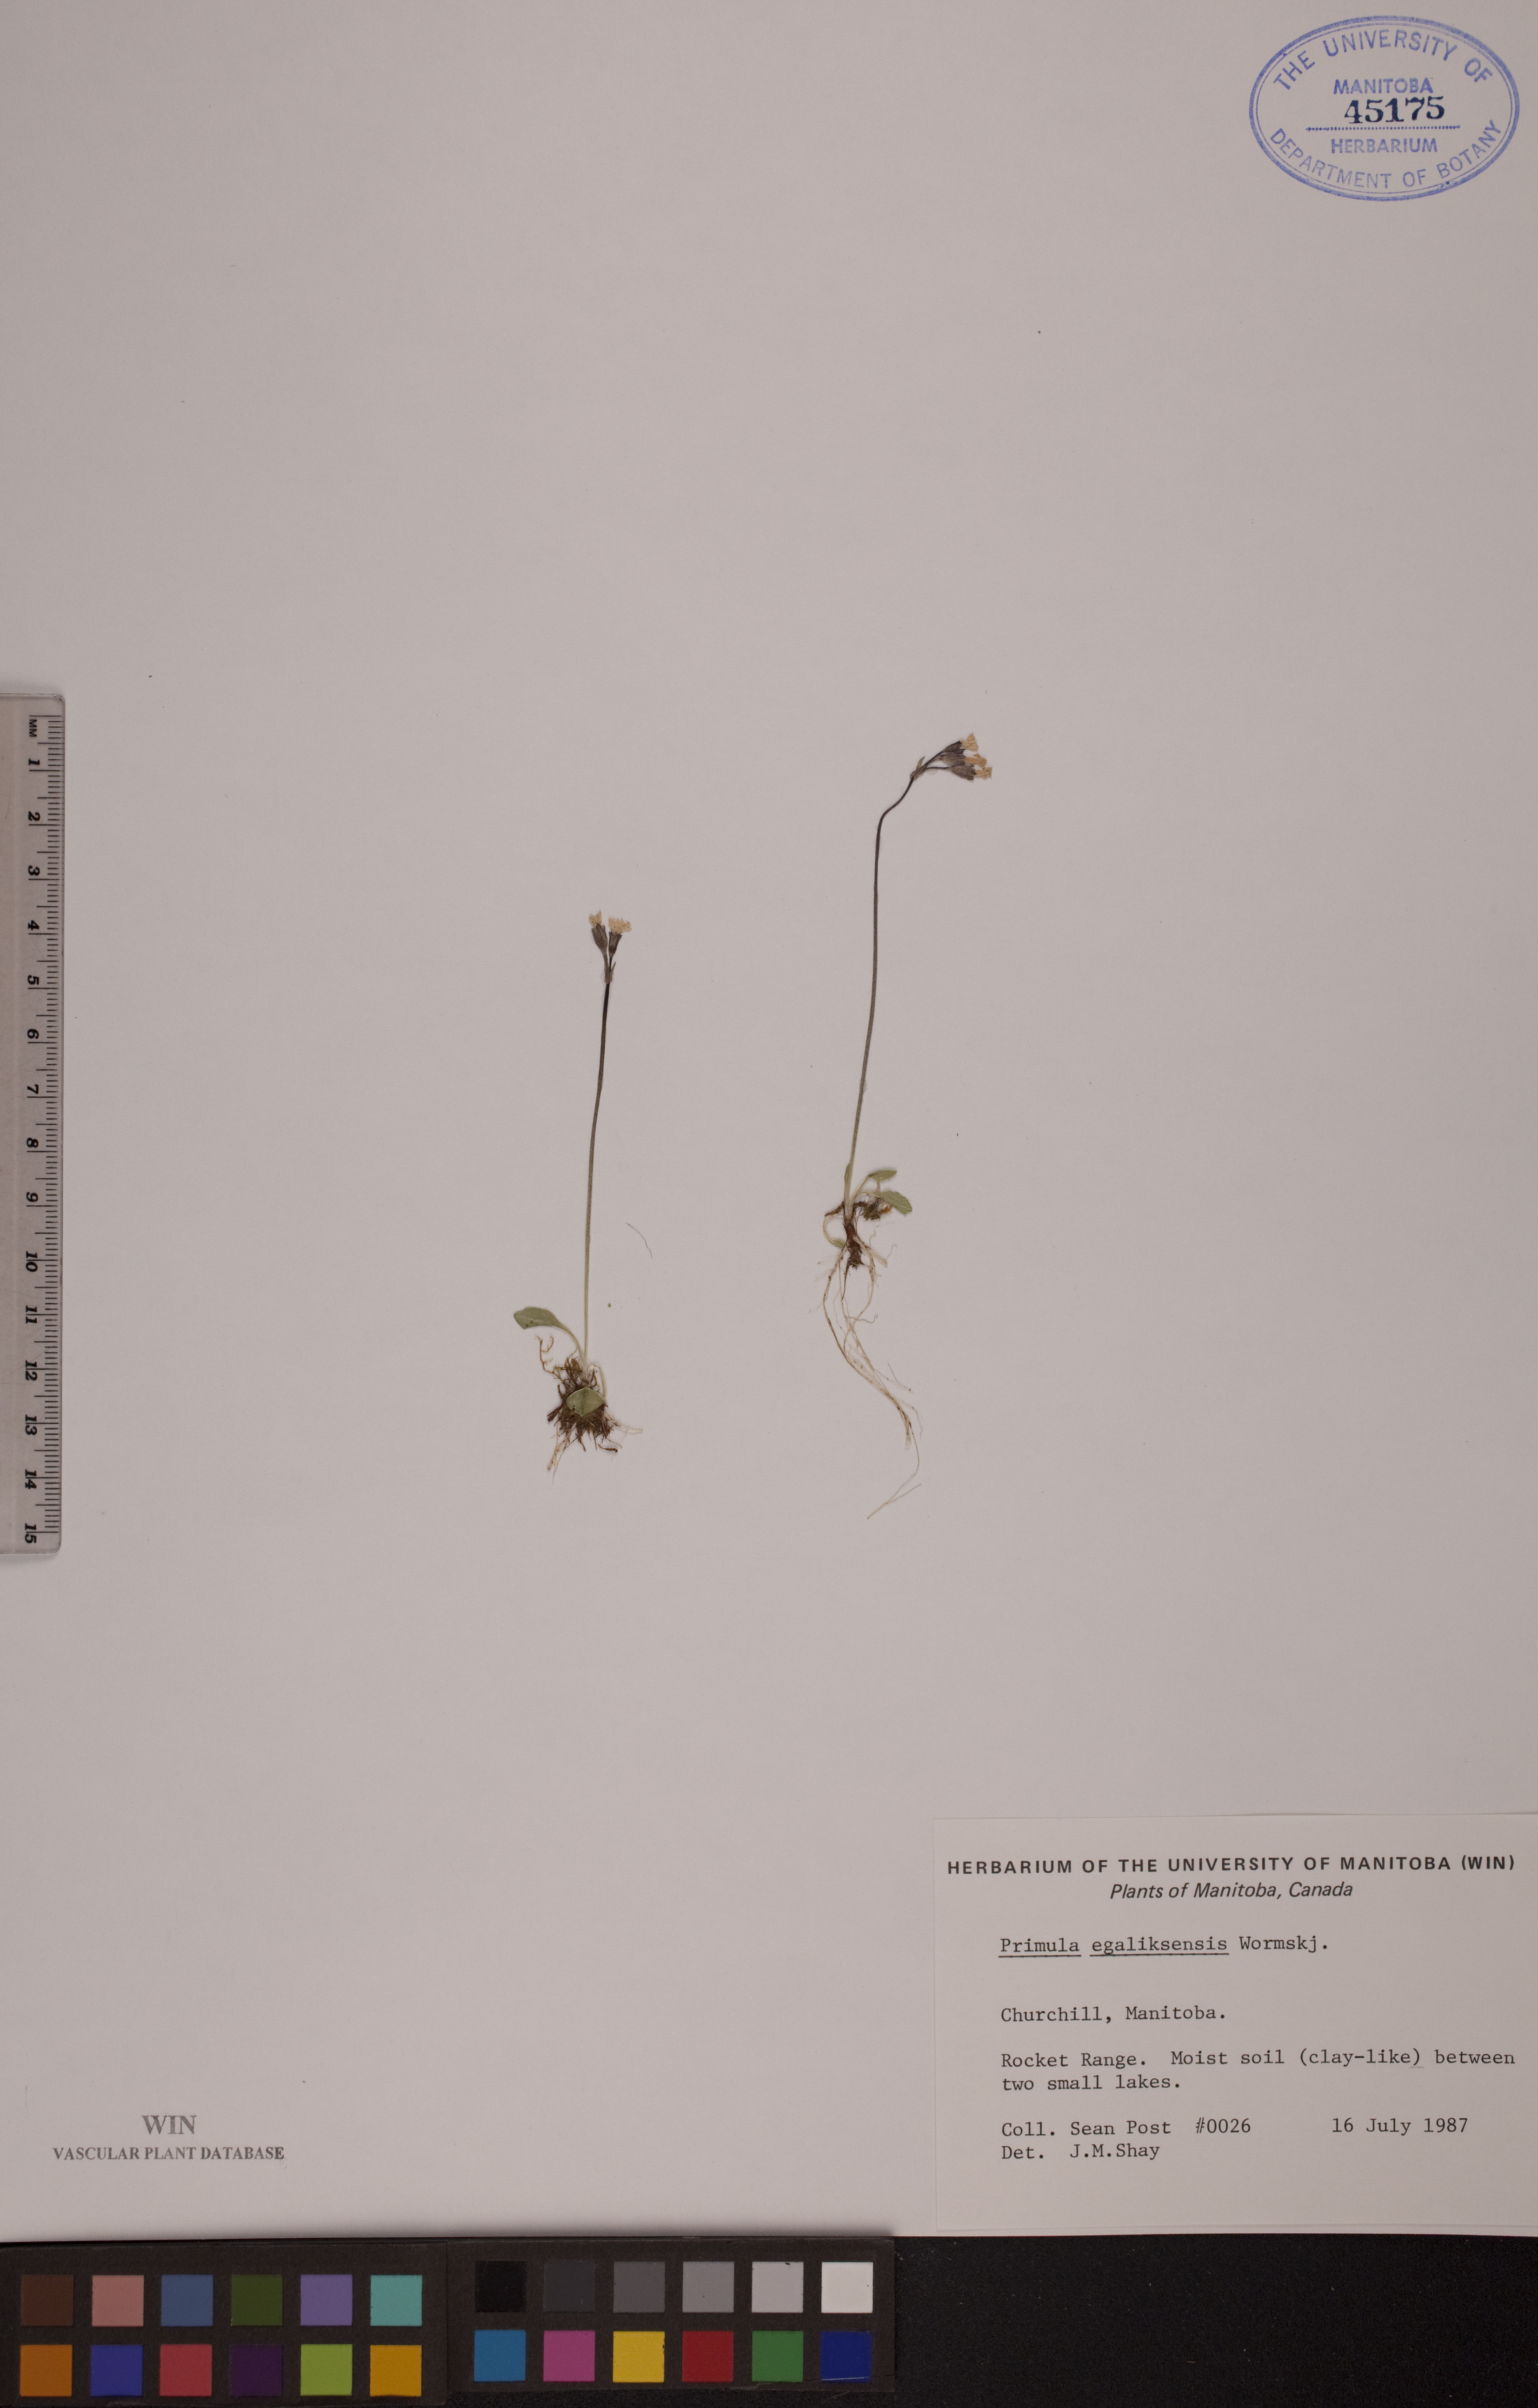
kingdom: Plantae
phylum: Tracheophyta
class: Magnoliopsida
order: Ericales
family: Primulaceae
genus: Primula
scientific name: Primula egaliksensis
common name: Greenland primrose
